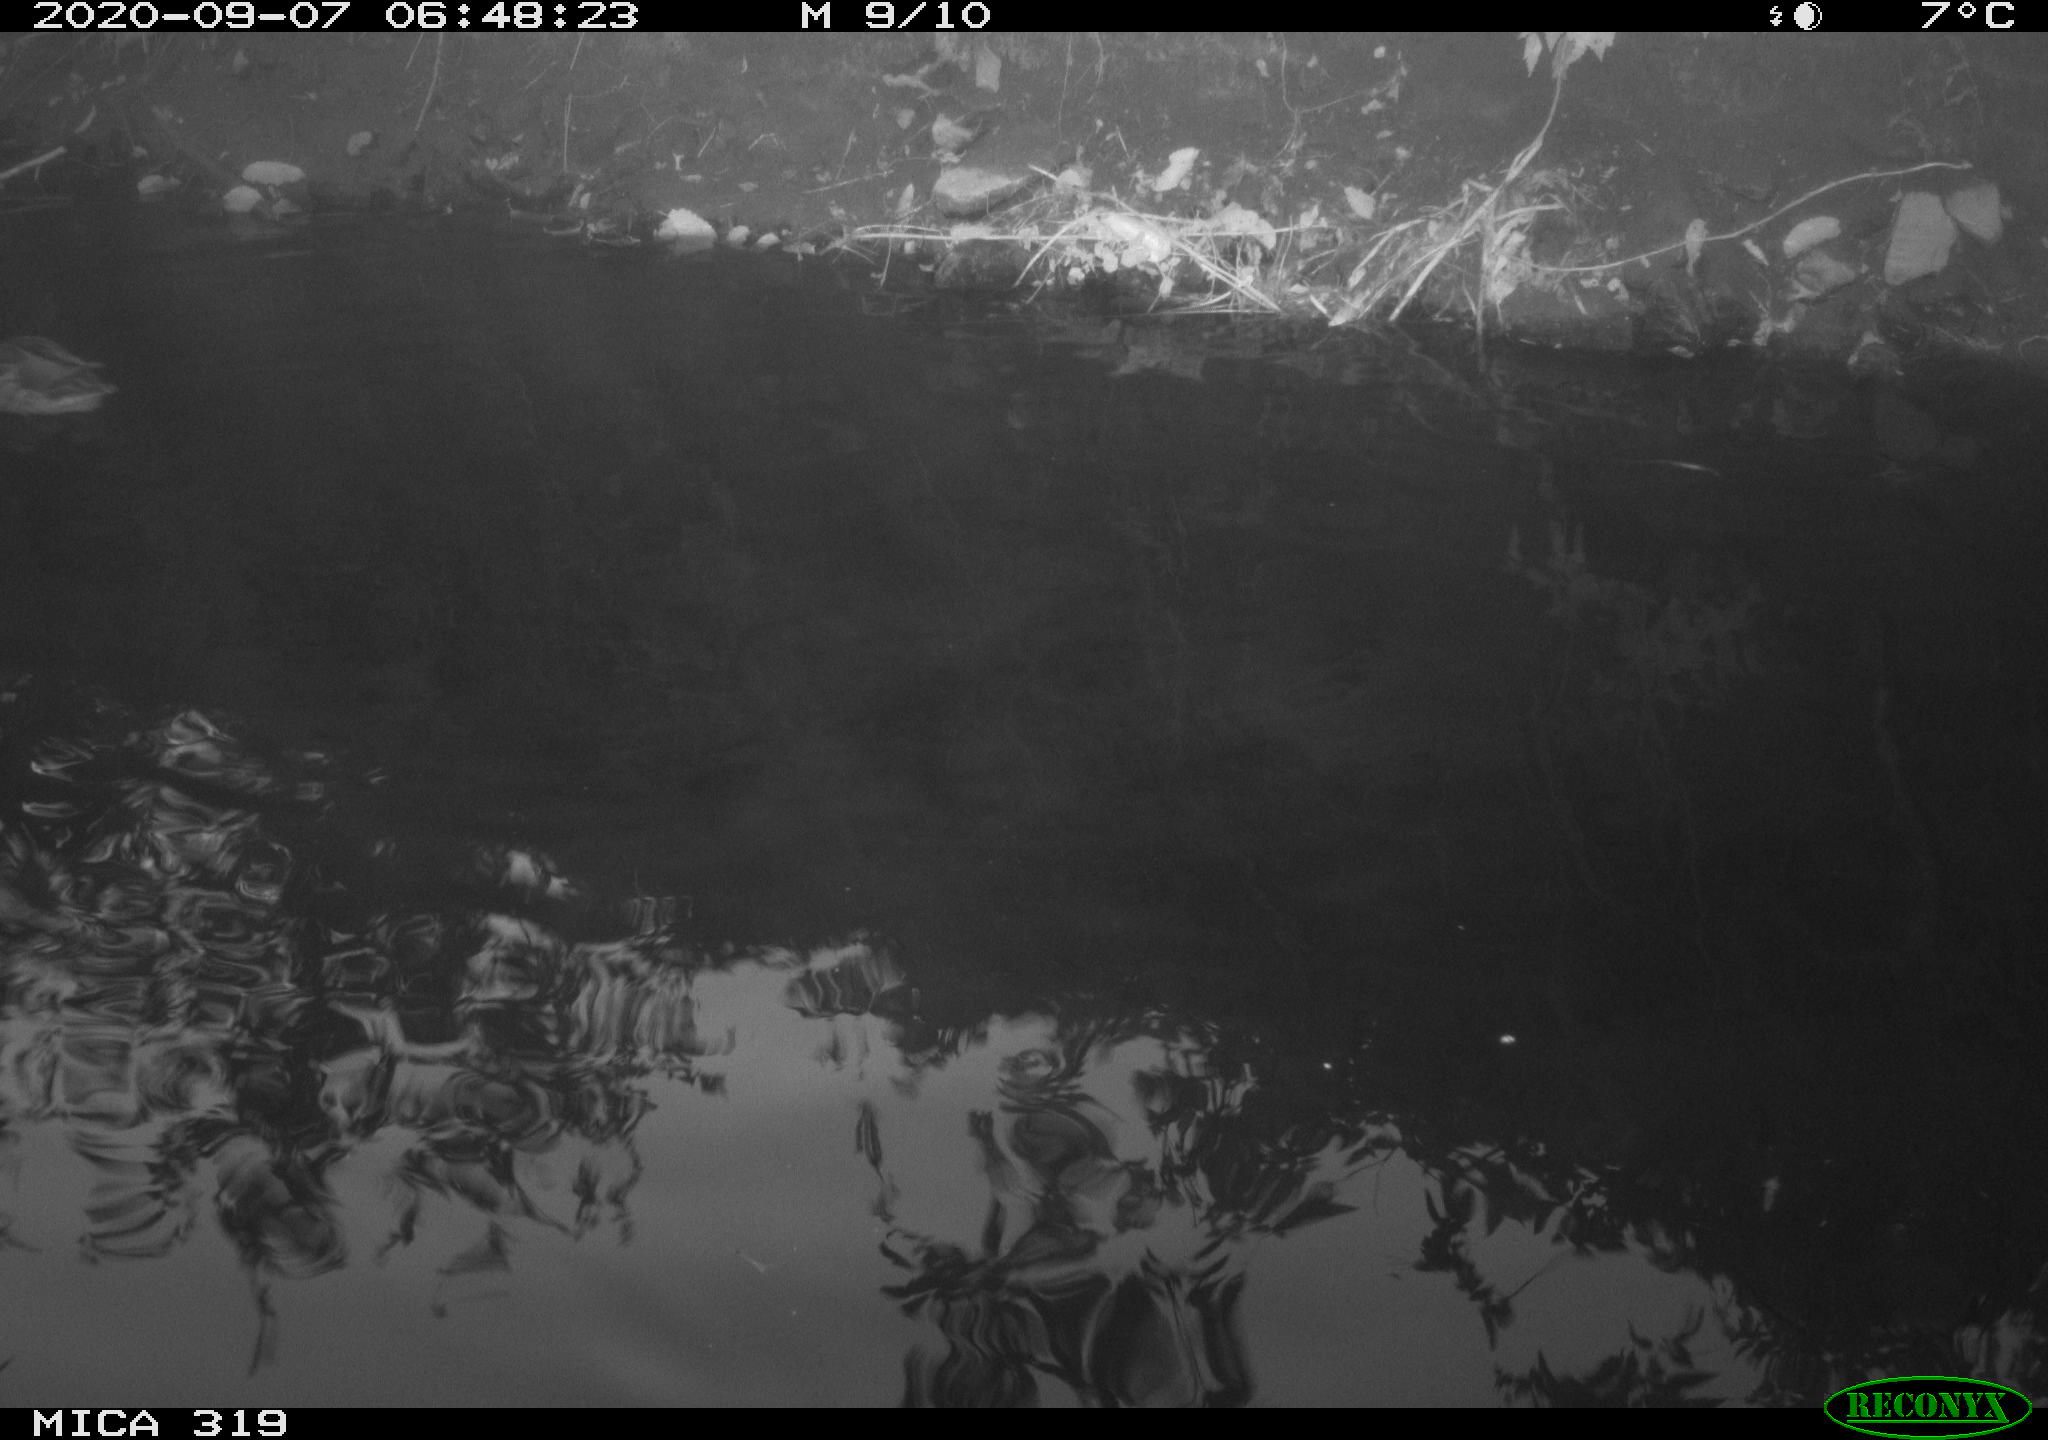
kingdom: Animalia
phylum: Chordata
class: Aves
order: Anseriformes
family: Anatidae
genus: Anas
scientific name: Anas platyrhynchos
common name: Mallard
